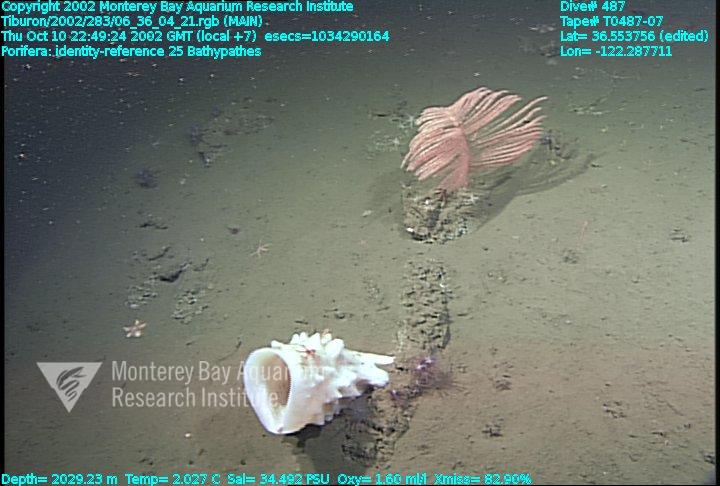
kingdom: Animalia
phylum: Porifera
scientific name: Porifera
